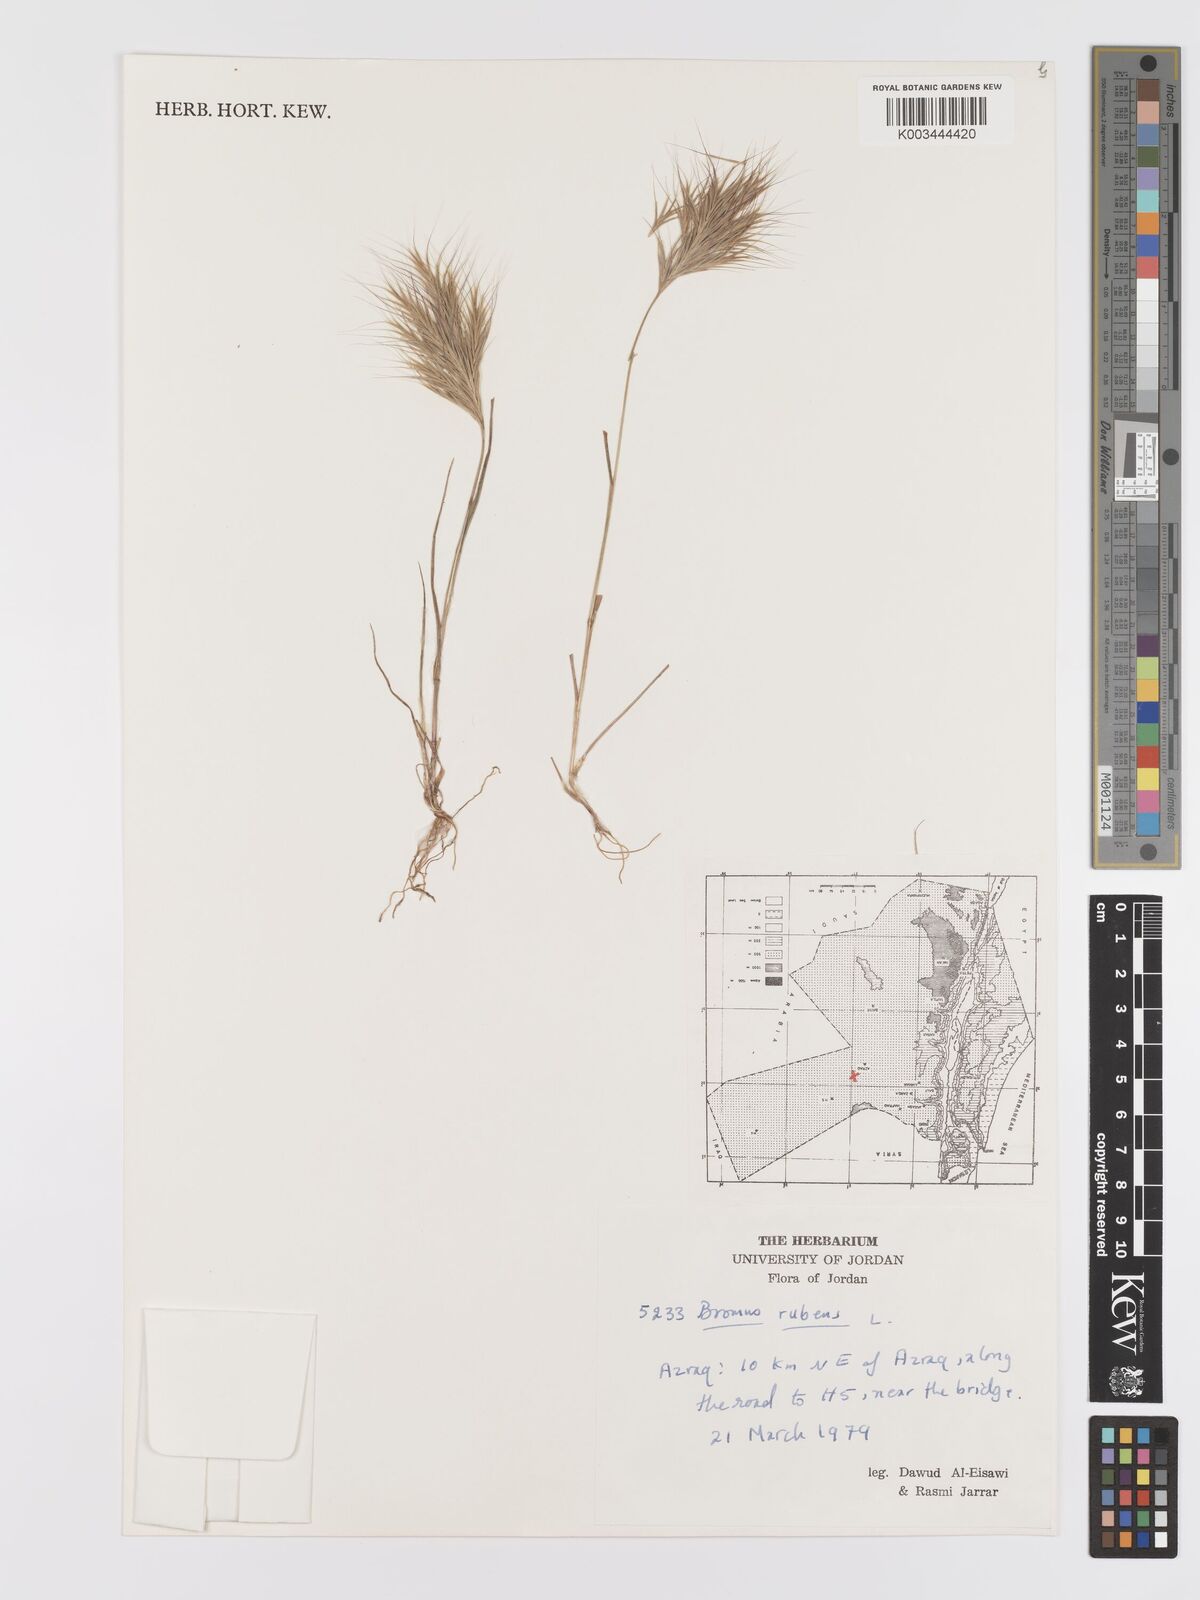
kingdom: Plantae
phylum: Tracheophyta
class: Liliopsida
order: Poales
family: Poaceae
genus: Bromus
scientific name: Bromus rubens
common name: Red brome
